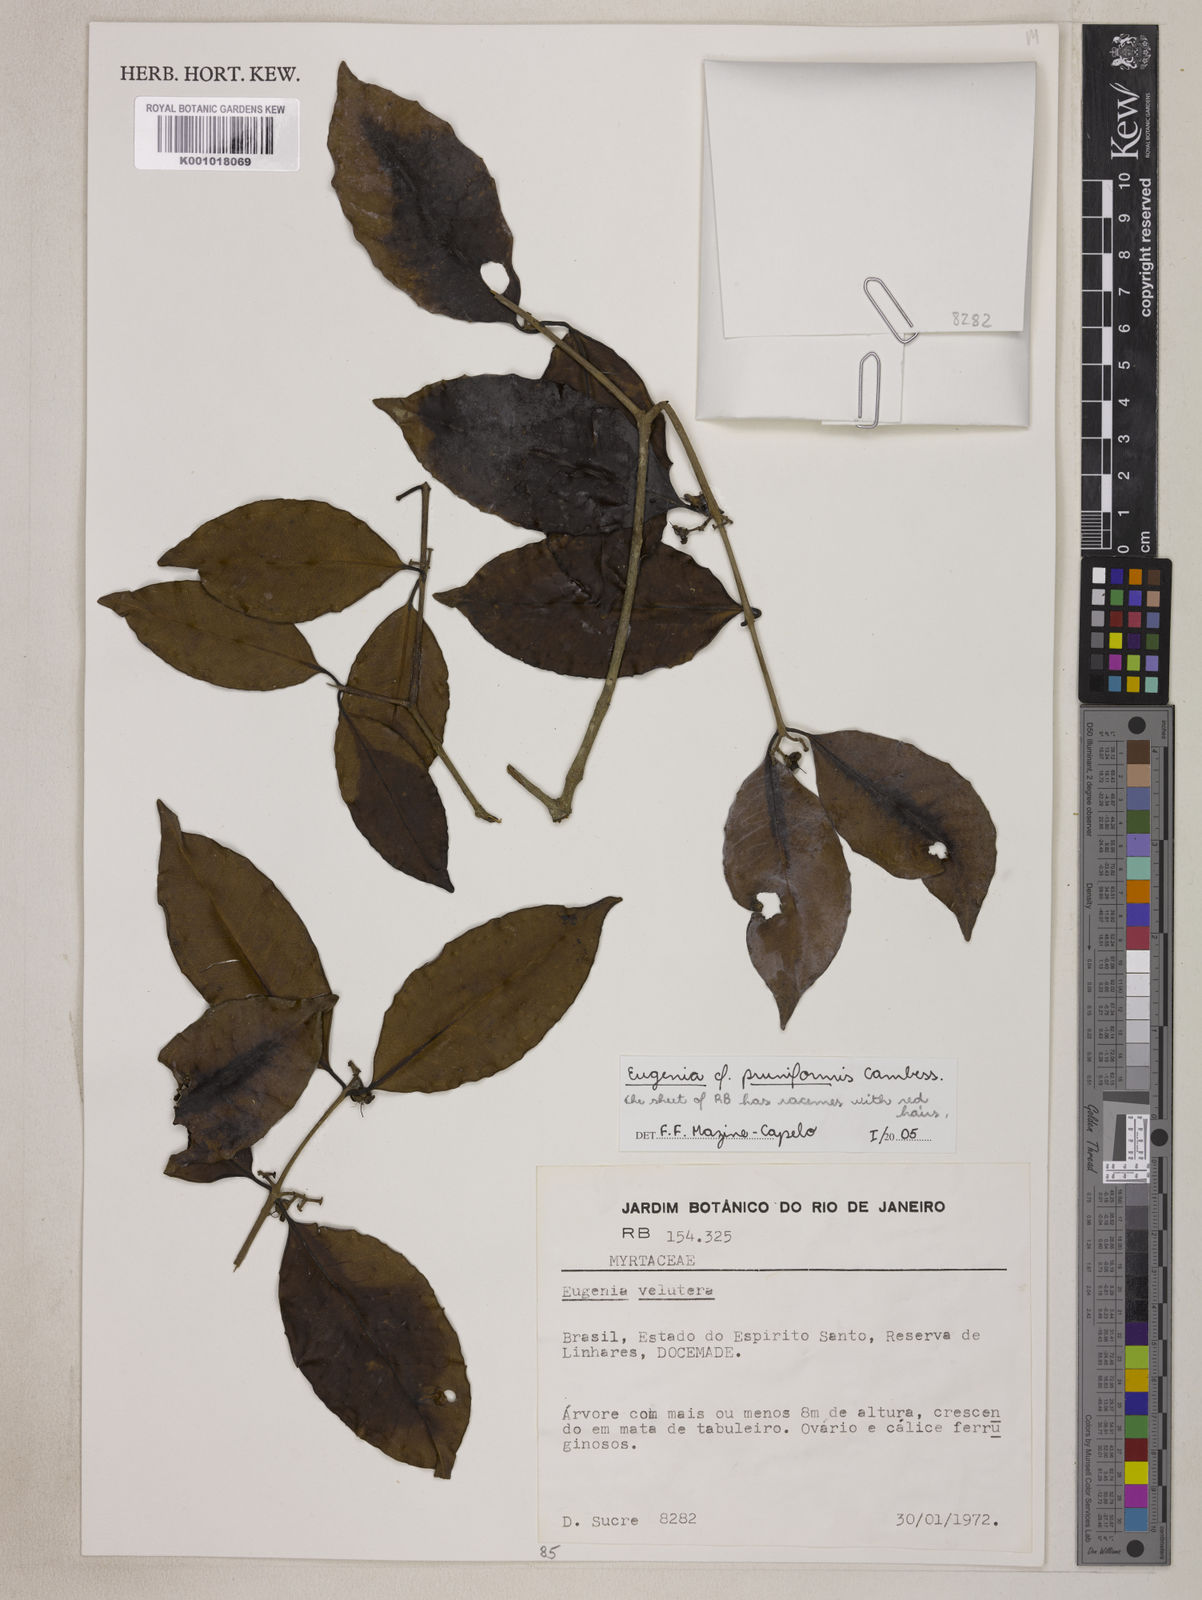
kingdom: Plantae
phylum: Tracheophyta
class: Magnoliopsida
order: Myrtales
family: Myrtaceae
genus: Eugenia
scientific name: Eugenia pruniformis
